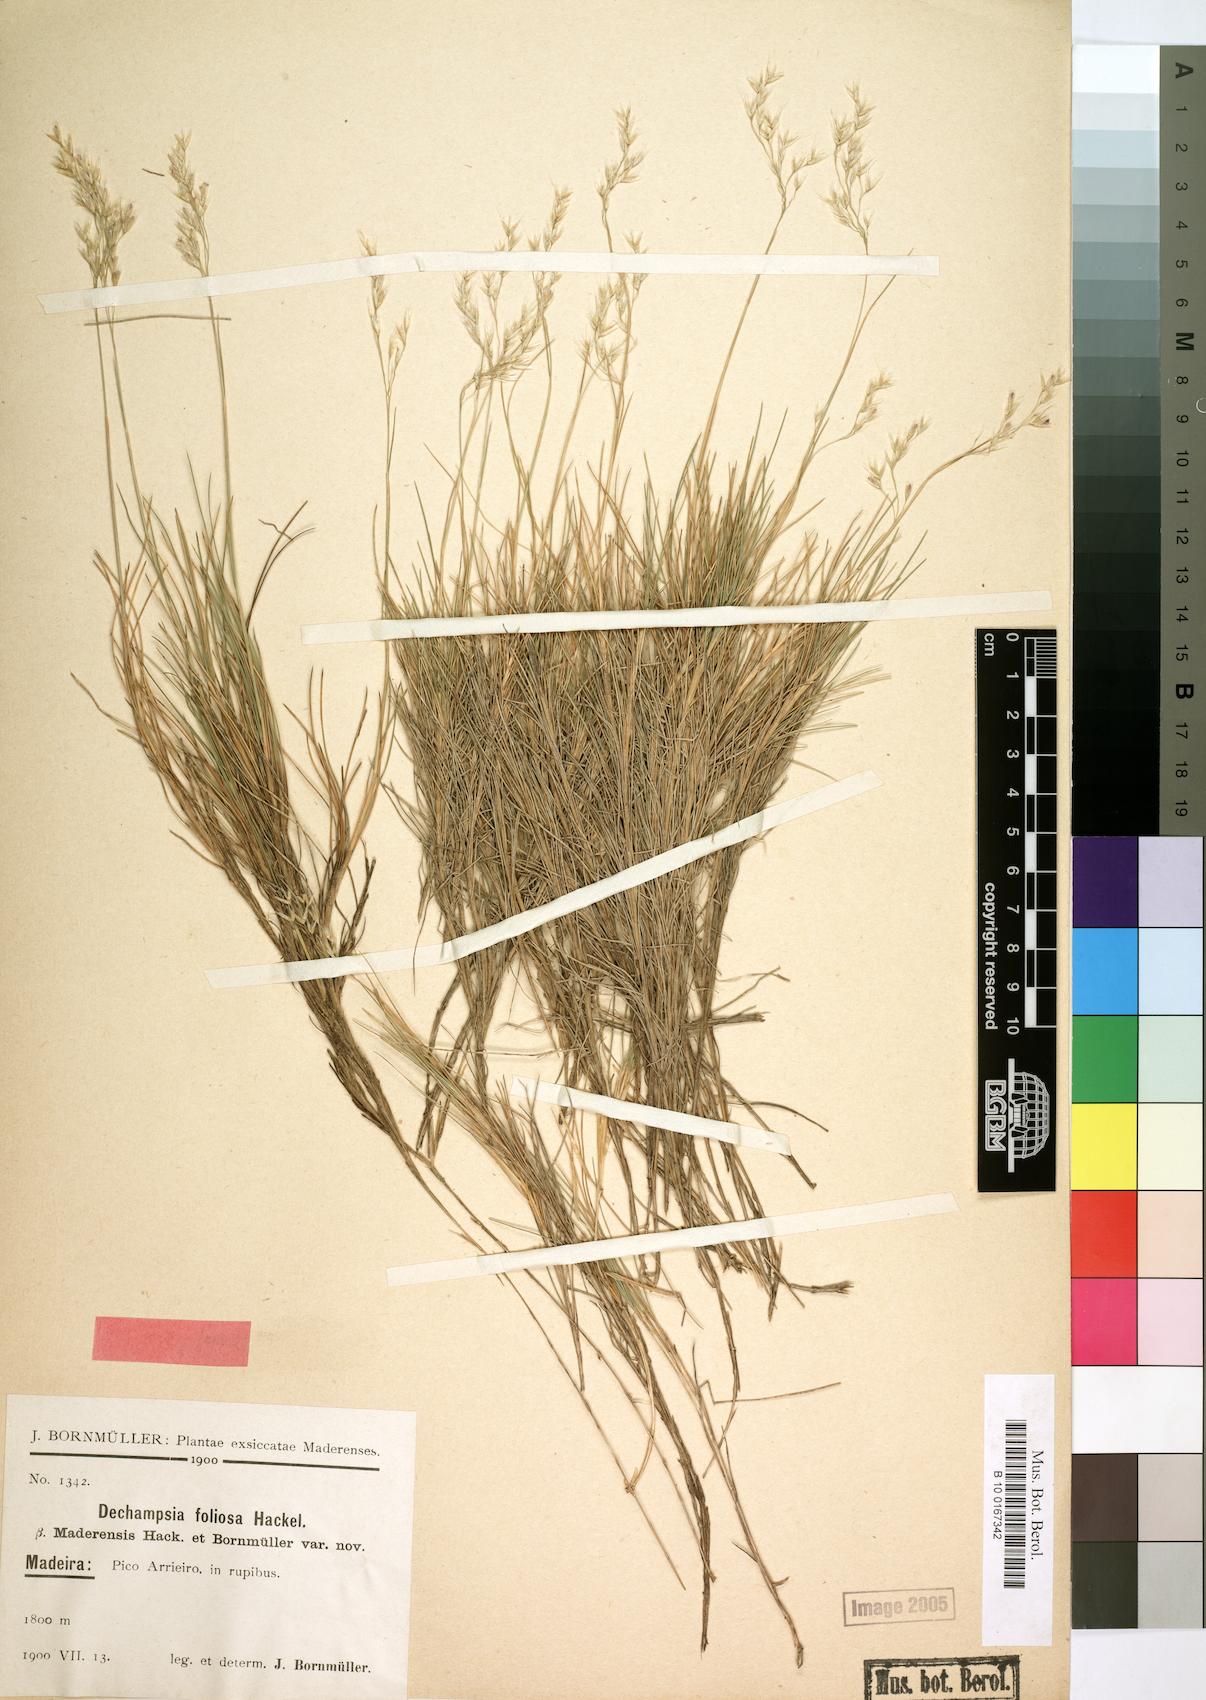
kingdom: Plantae
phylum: Tracheophyta
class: Liliopsida
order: Poales
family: Poaceae
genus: Avenella
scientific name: Avenella flexuosa
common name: Wavy hairgrass
